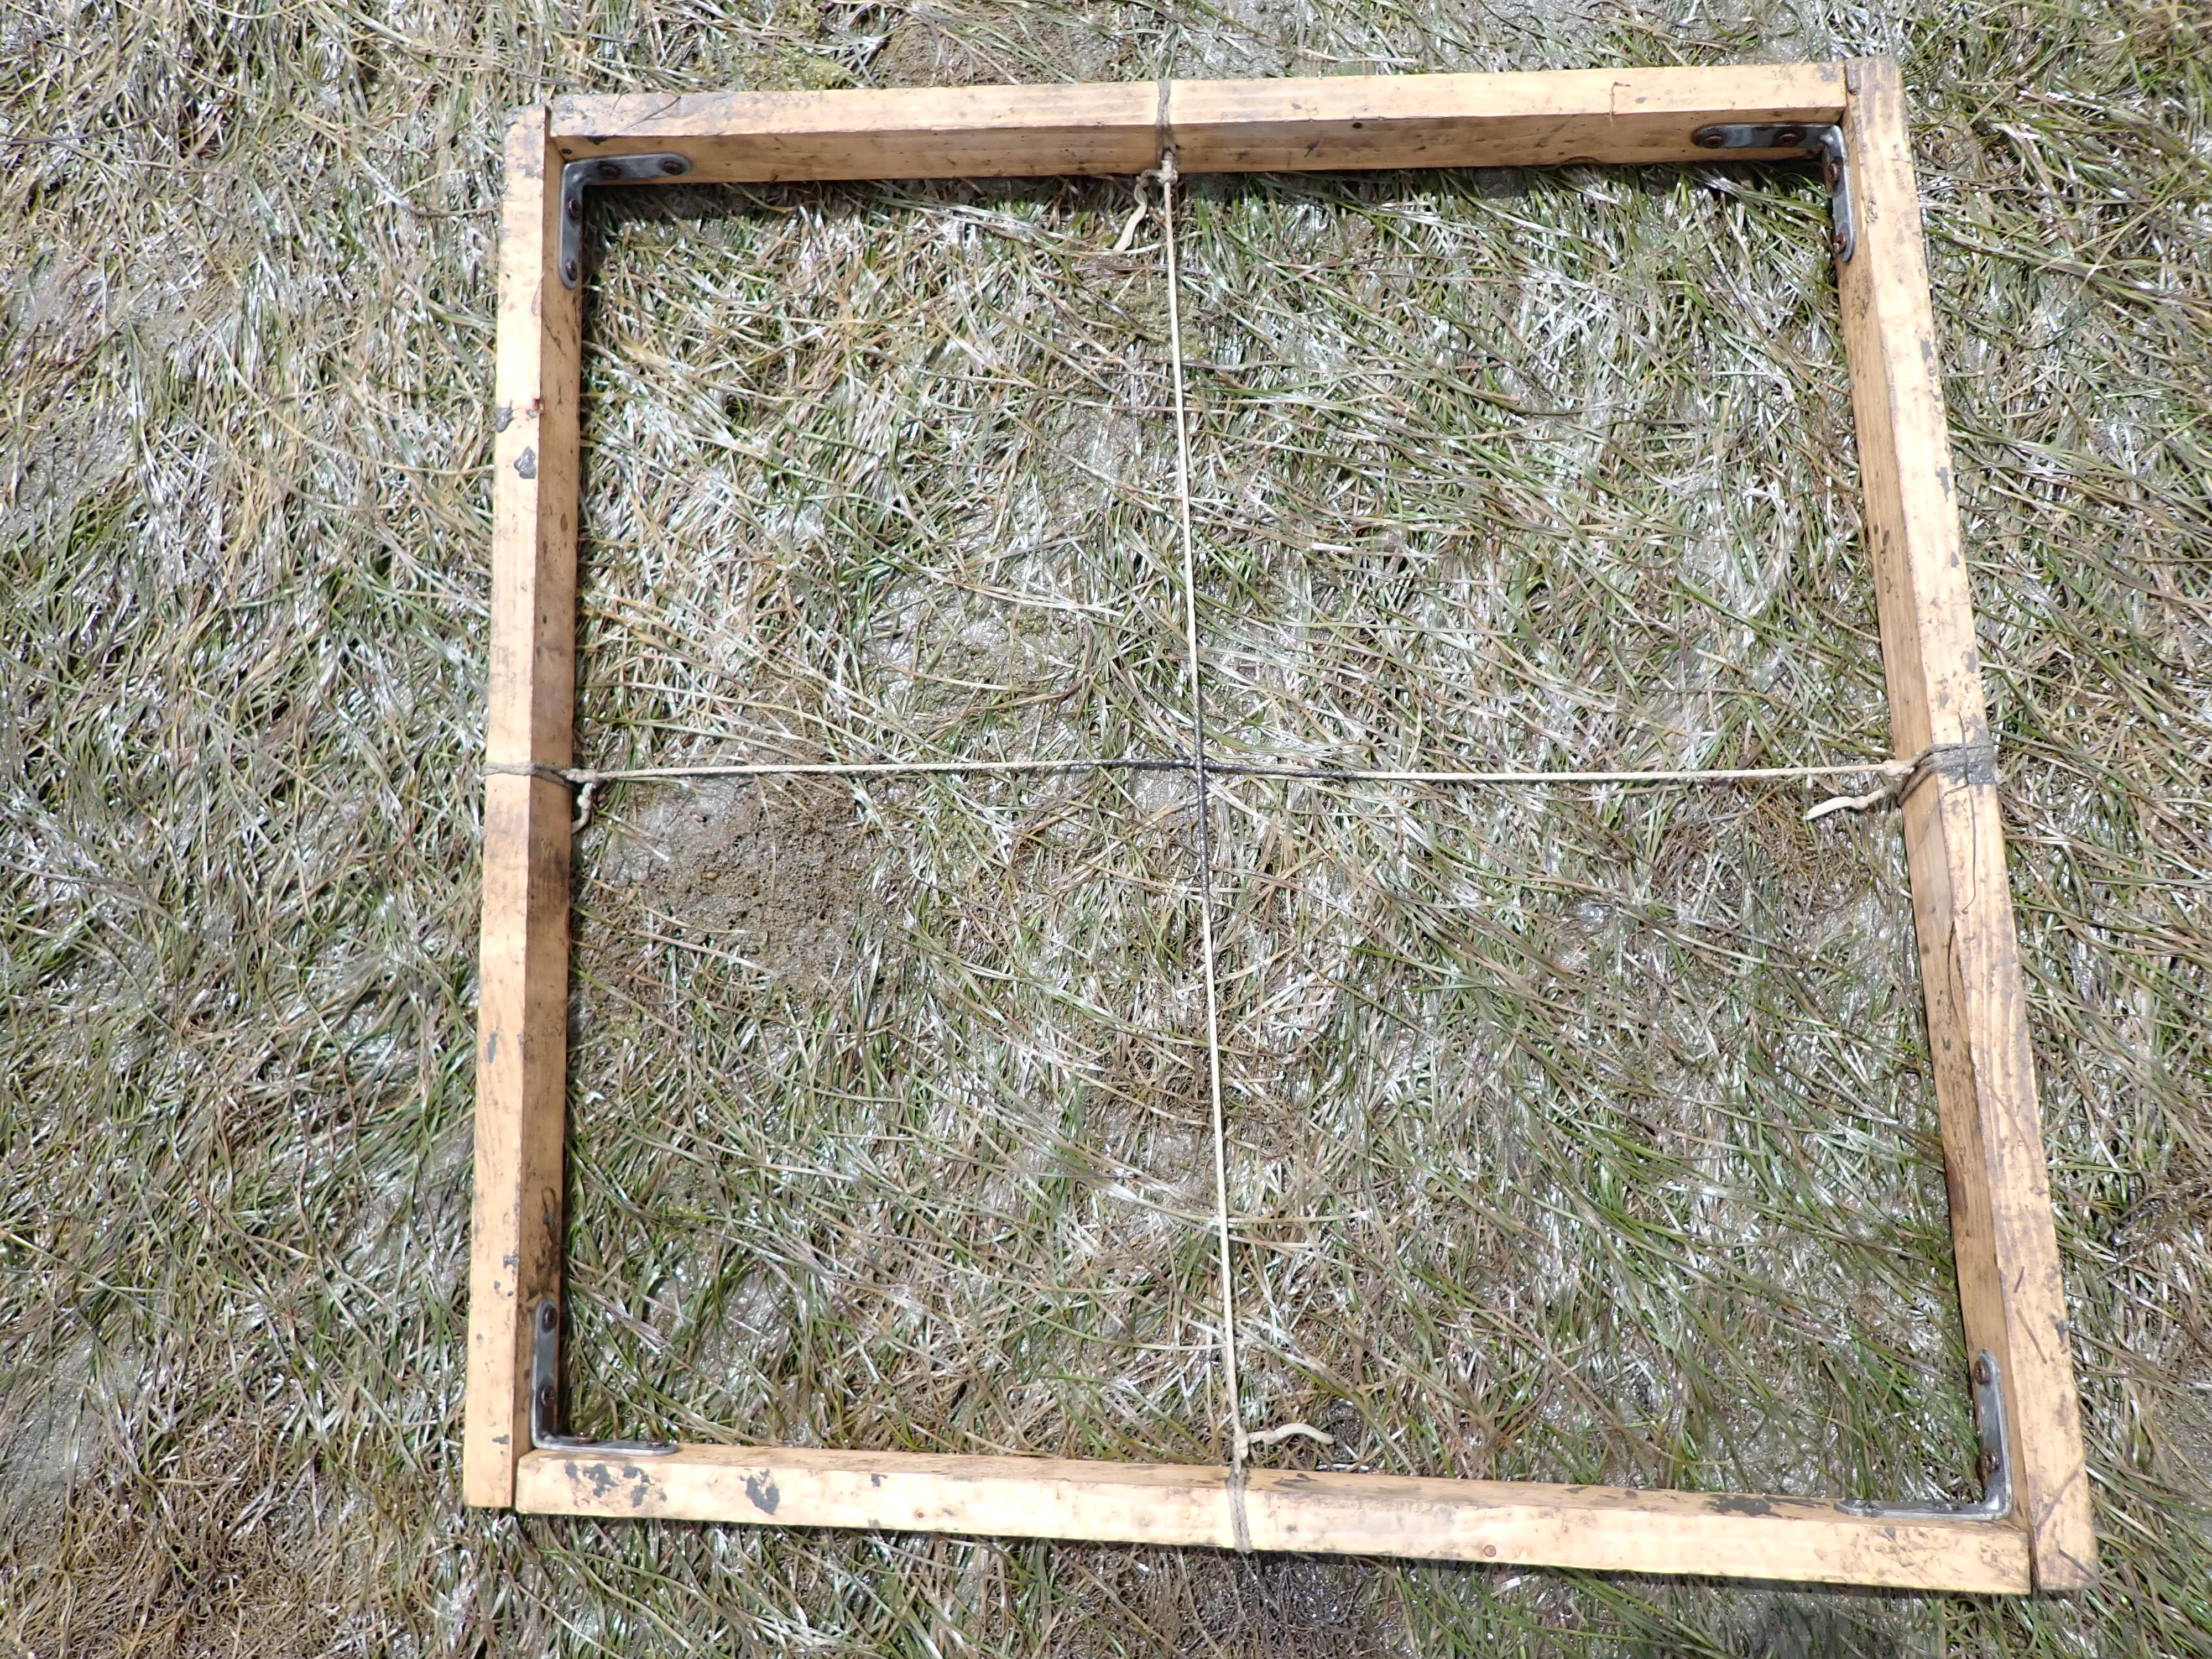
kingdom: Plantae
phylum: Tracheophyta
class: Liliopsida
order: Alismatales
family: Zosteraceae
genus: Zostera
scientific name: Zostera noltii
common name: Dwarf eelgrass
